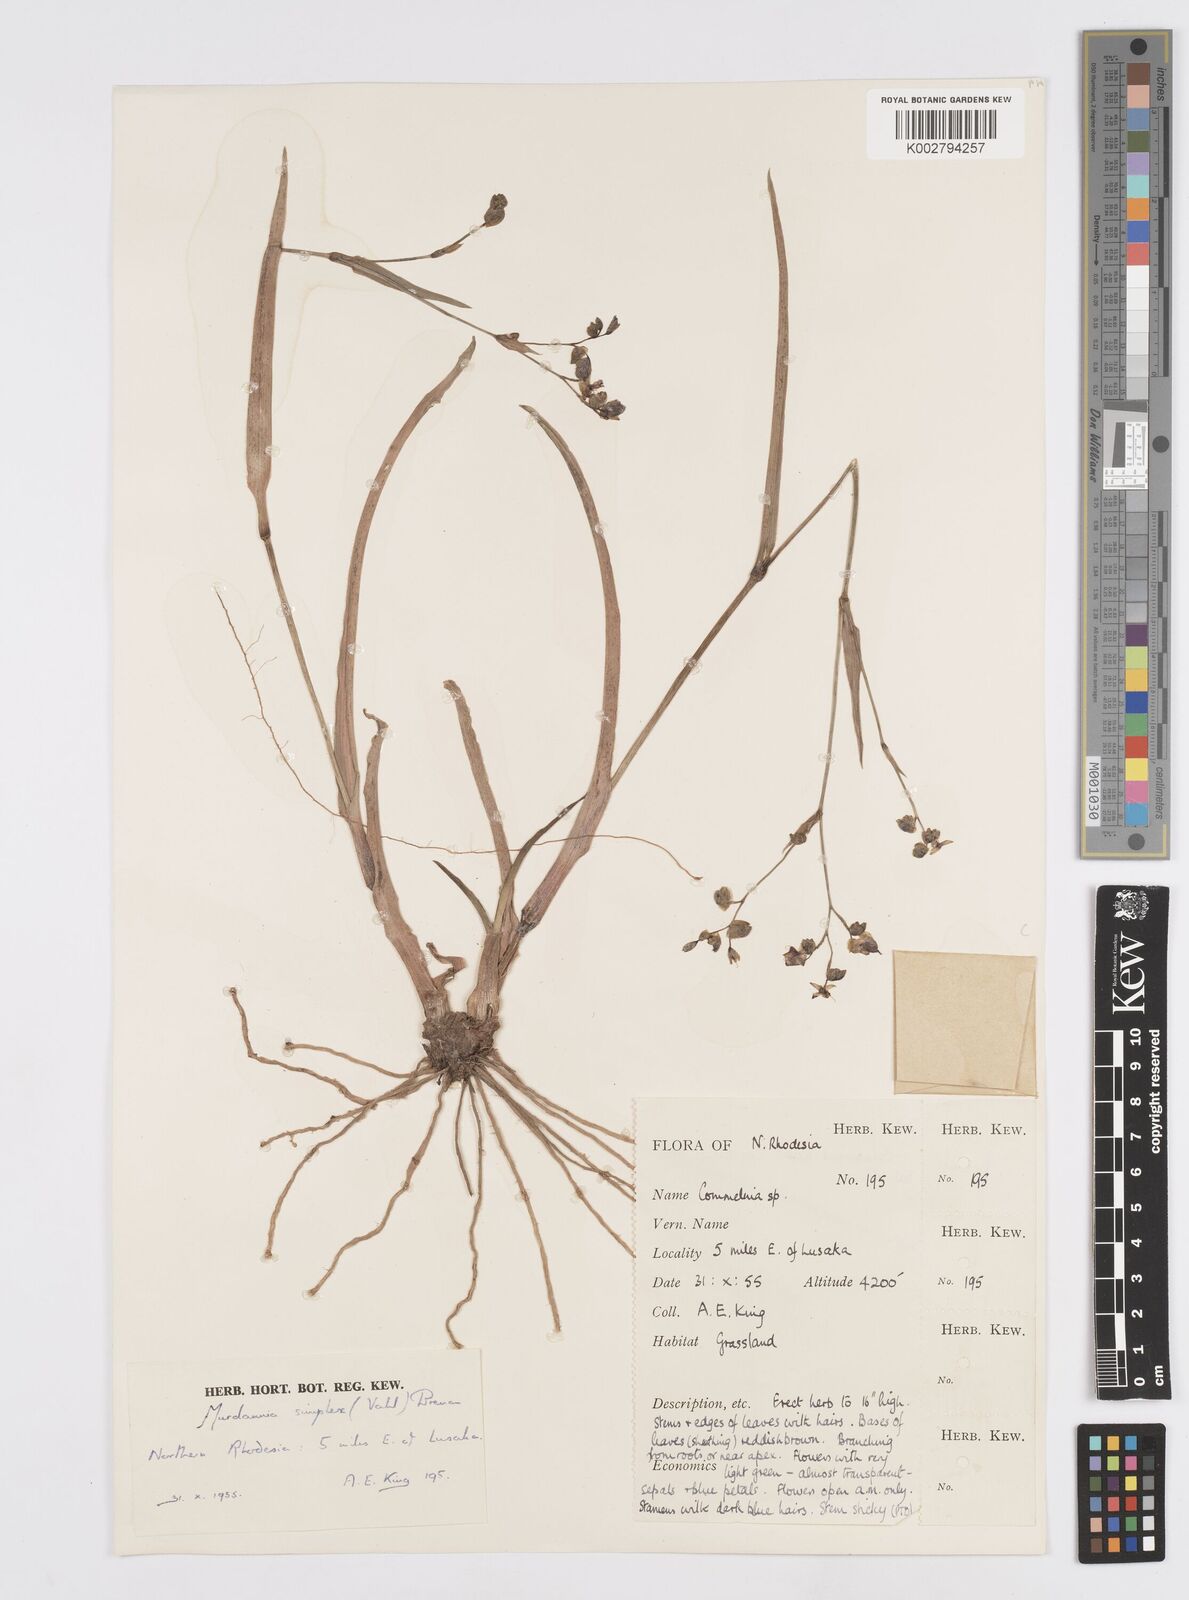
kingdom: Plantae
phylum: Tracheophyta
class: Liliopsida
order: Commelinales
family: Commelinaceae
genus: Murdannia
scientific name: Murdannia simplex
